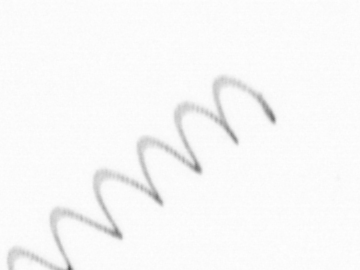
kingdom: Chromista
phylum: Ochrophyta
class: Bacillariophyceae
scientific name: Bacillariophyceae
